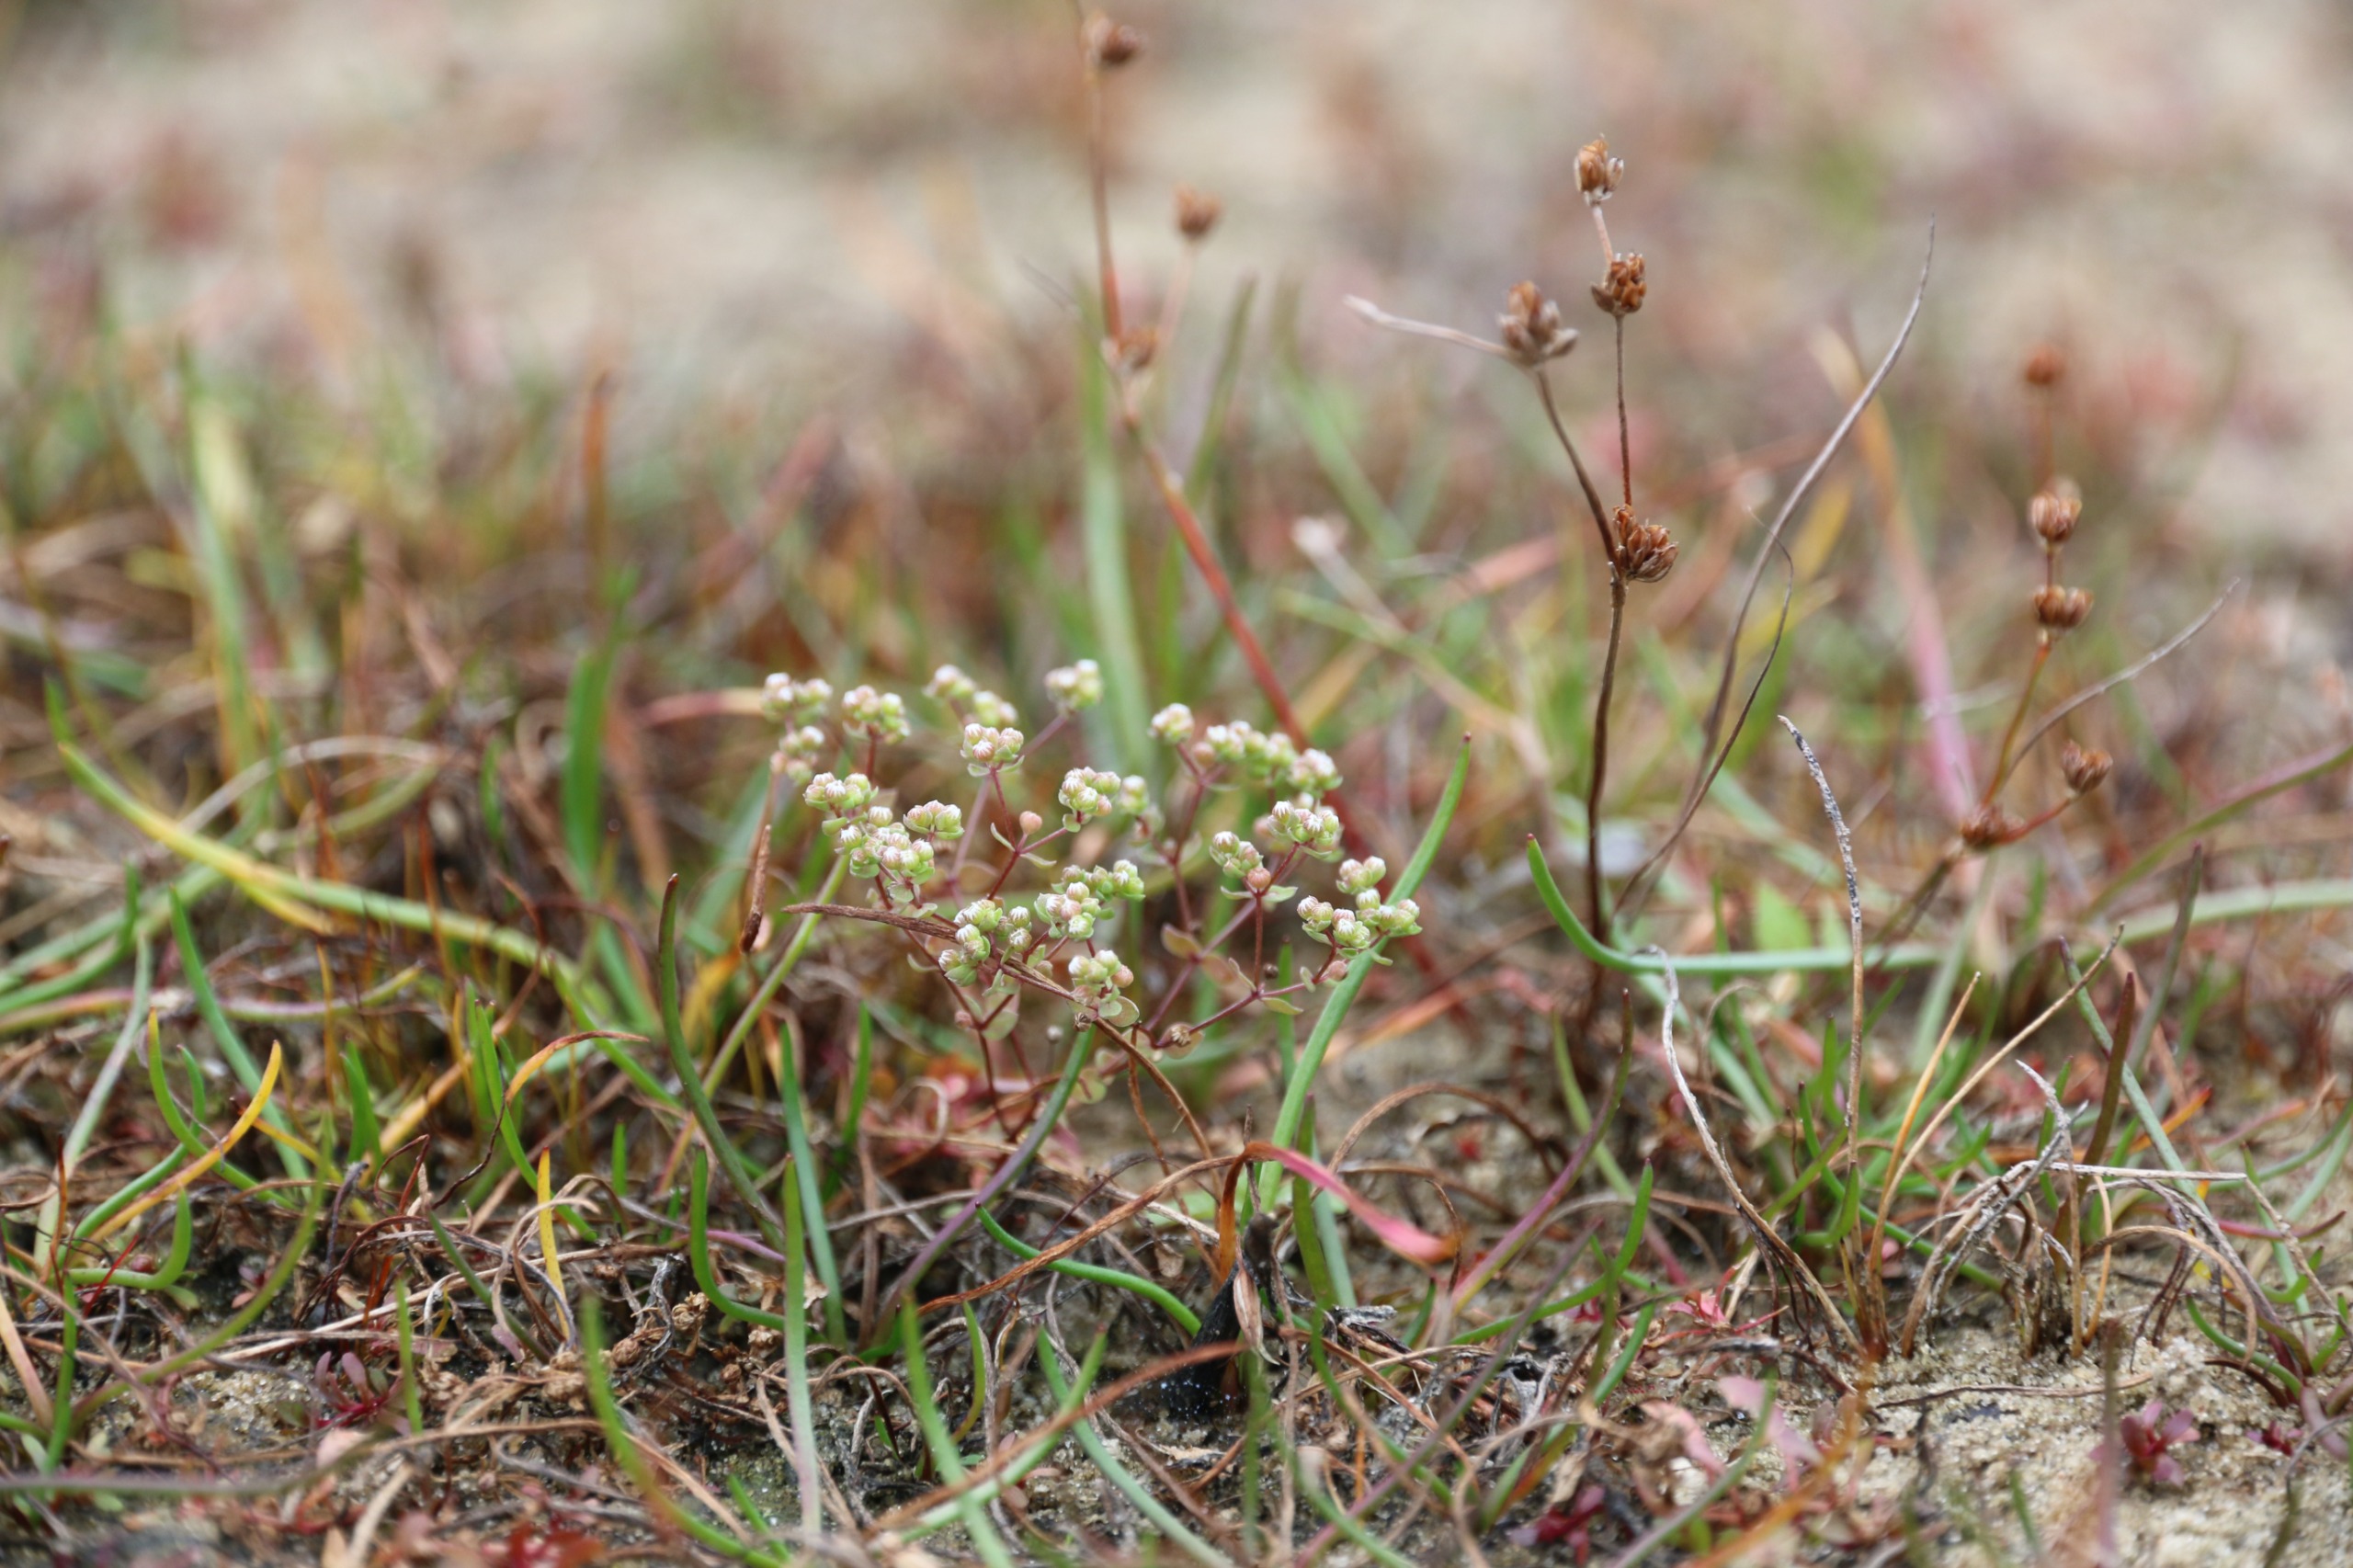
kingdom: Plantae
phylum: Tracheophyta
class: Magnoliopsida
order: Malpighiales
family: Linaceae
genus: Radiola
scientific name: Radiola linoides
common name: Tusindfrø
